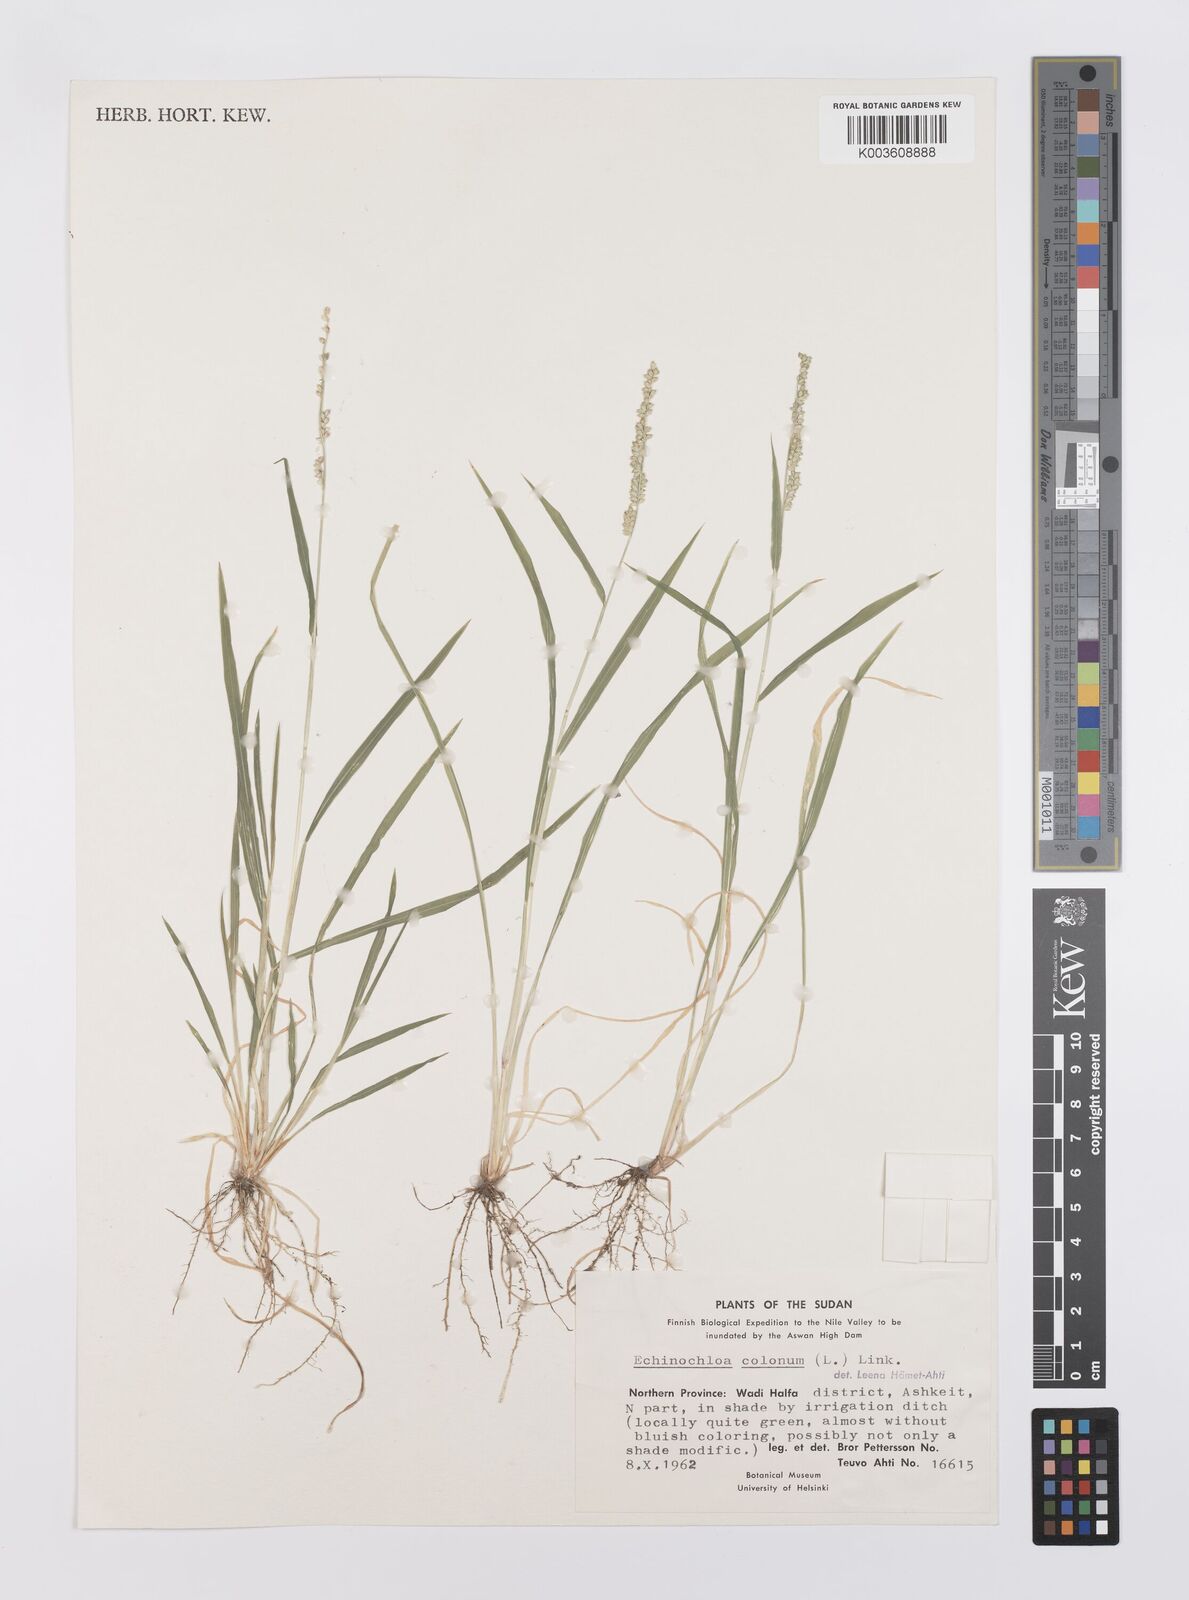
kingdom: Plantae
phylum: Tracheophyta
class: Liliopsida
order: Poales
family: Poaceae
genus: Echinochloa
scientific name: Echinochloa colonum
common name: Jungle rice
